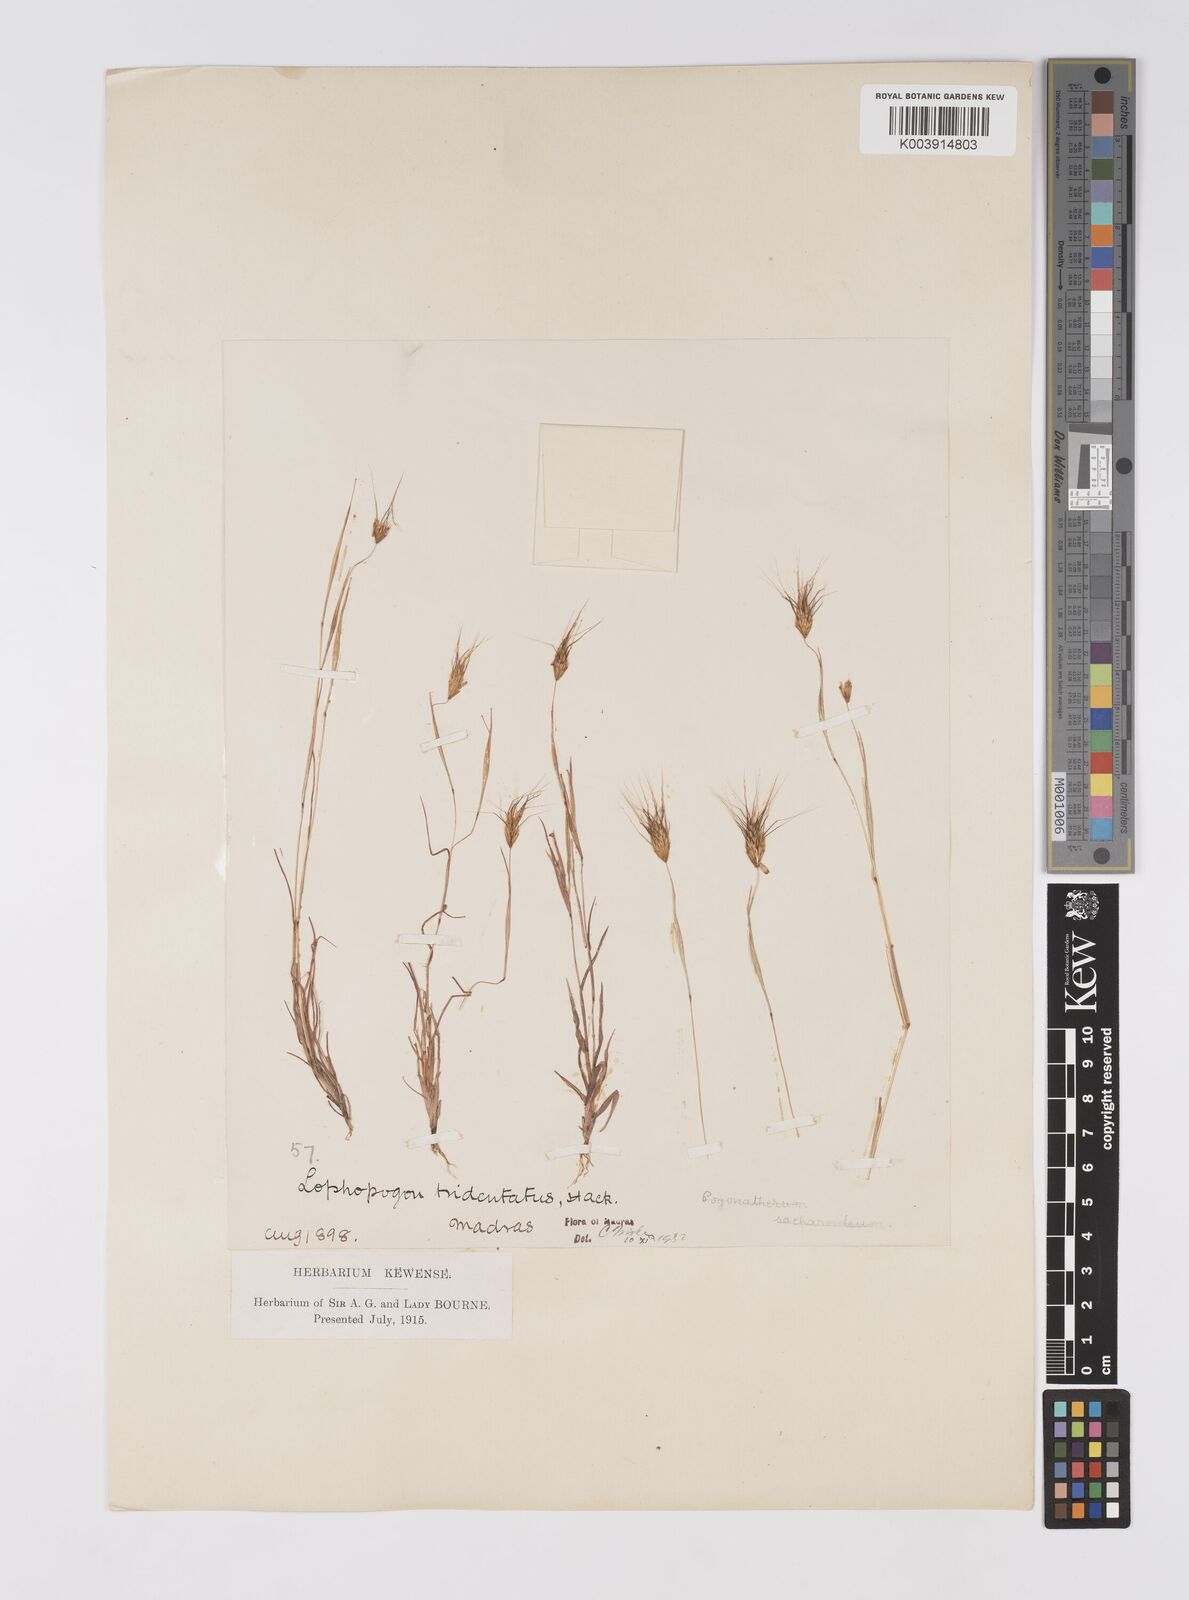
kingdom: Plantae
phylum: Tracheophyta
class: Liliopsida
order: Poales
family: Poaceae
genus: Lophopogon
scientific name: Lophopogon tridentatus
